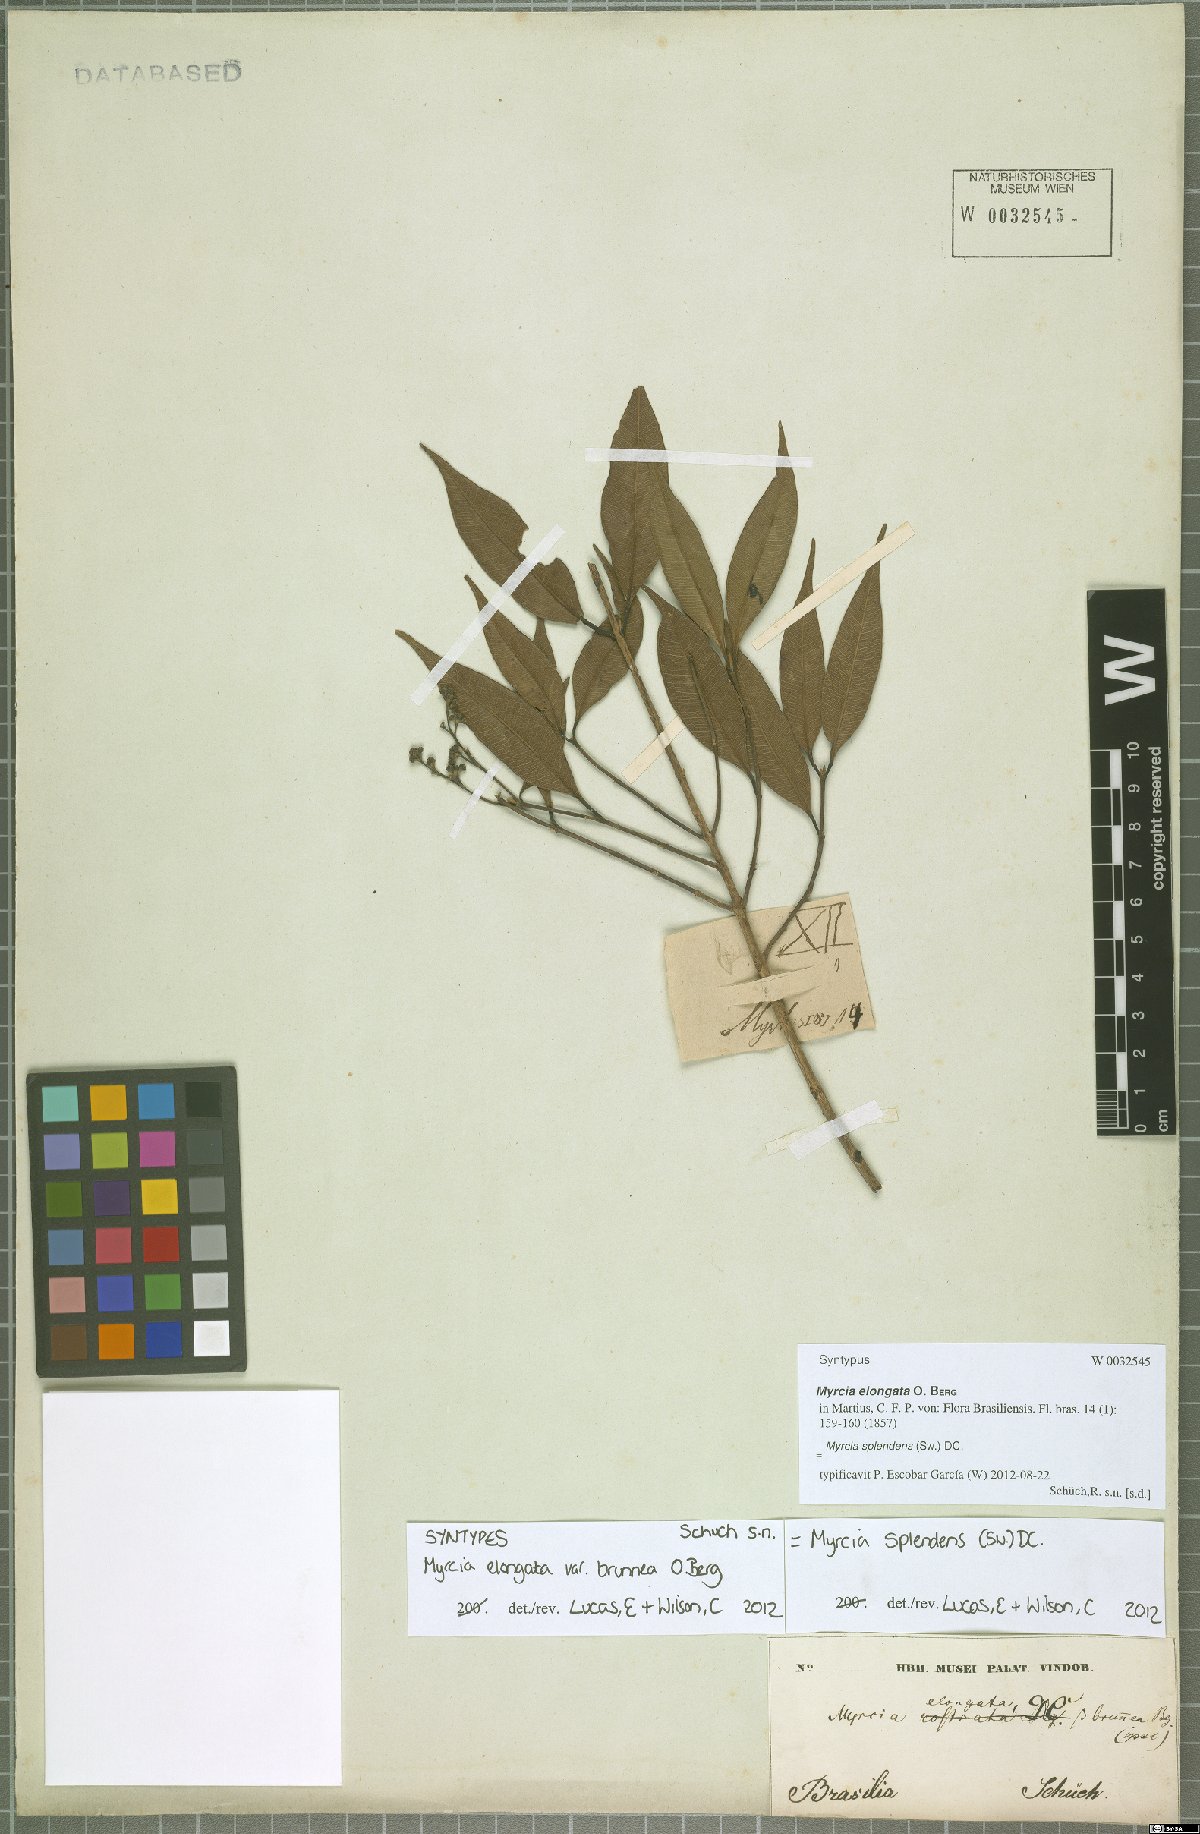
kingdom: Plantae
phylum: Tracheophyta
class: Magnoliopsida
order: Myrtales
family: Myrtaceae
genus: Myrcia
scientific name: Myrcia splendens
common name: Surinam cherry
